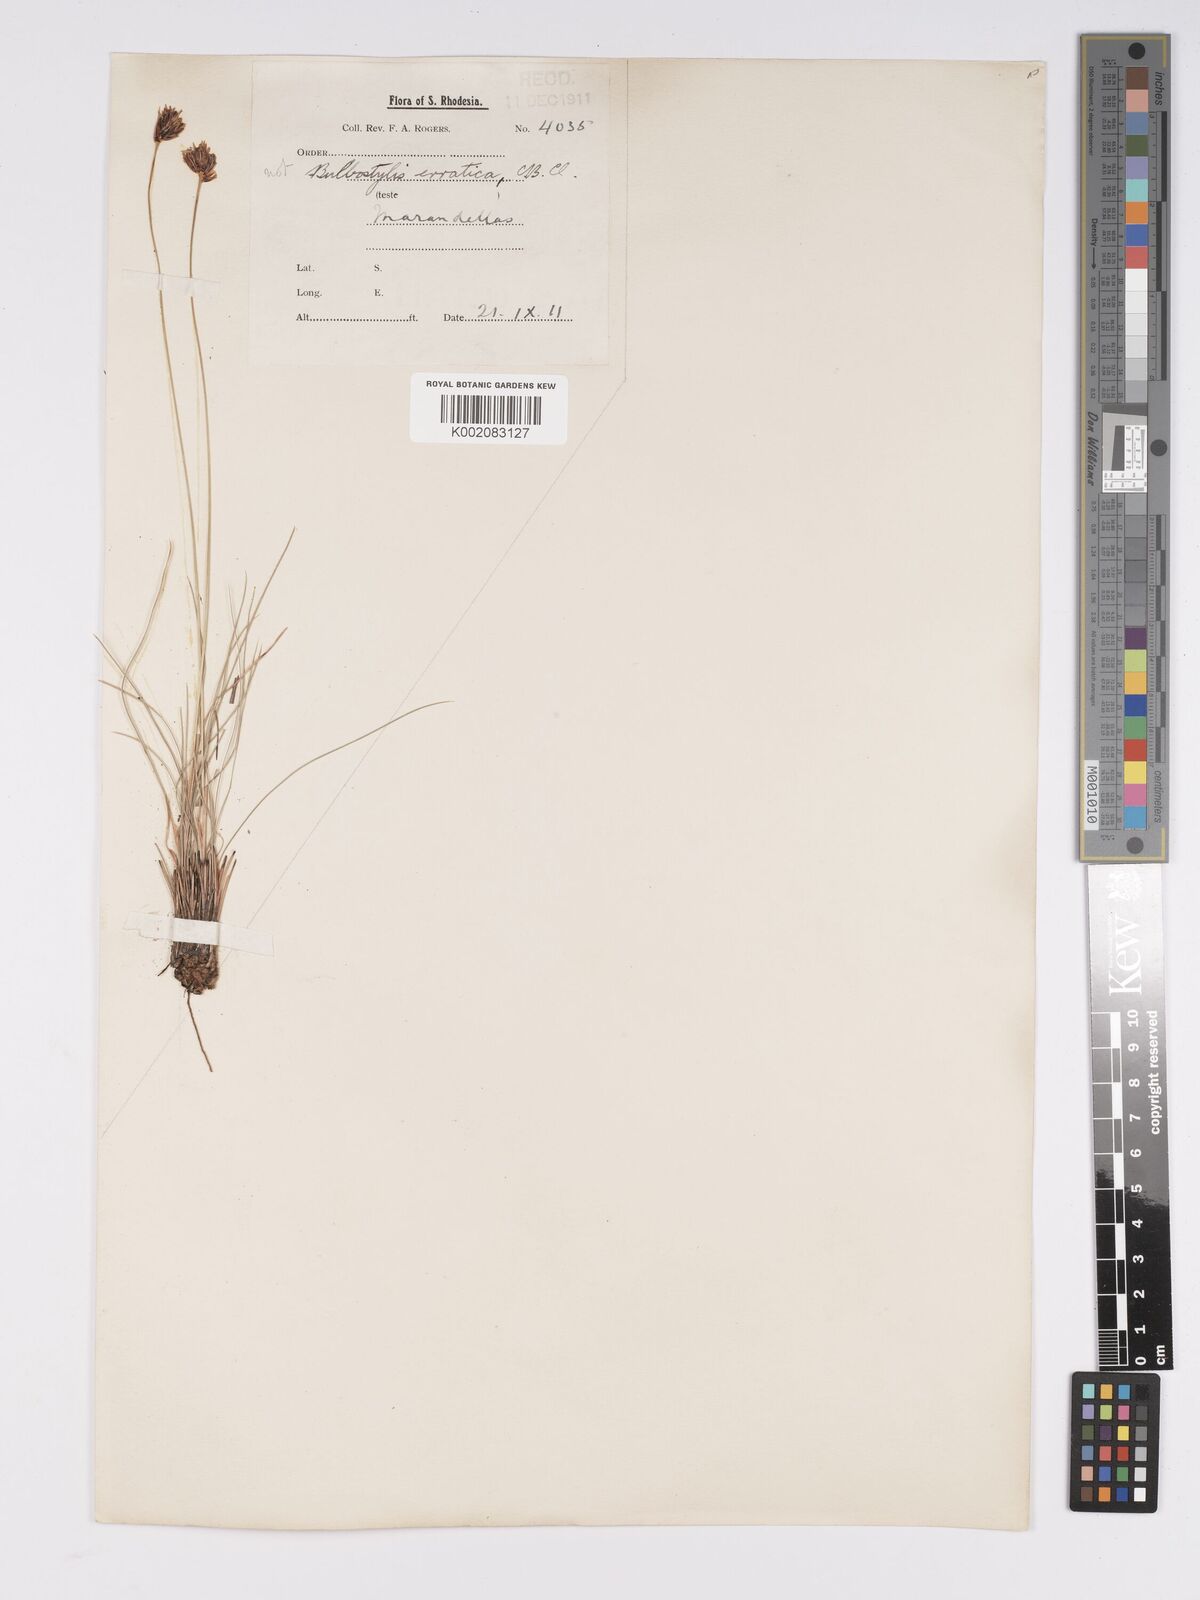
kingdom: Plantae
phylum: Tracheophyta
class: Liliopsida
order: Poales
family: Cyperaceae
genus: Bulbostylis
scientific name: Bulbostylis schoenoides
